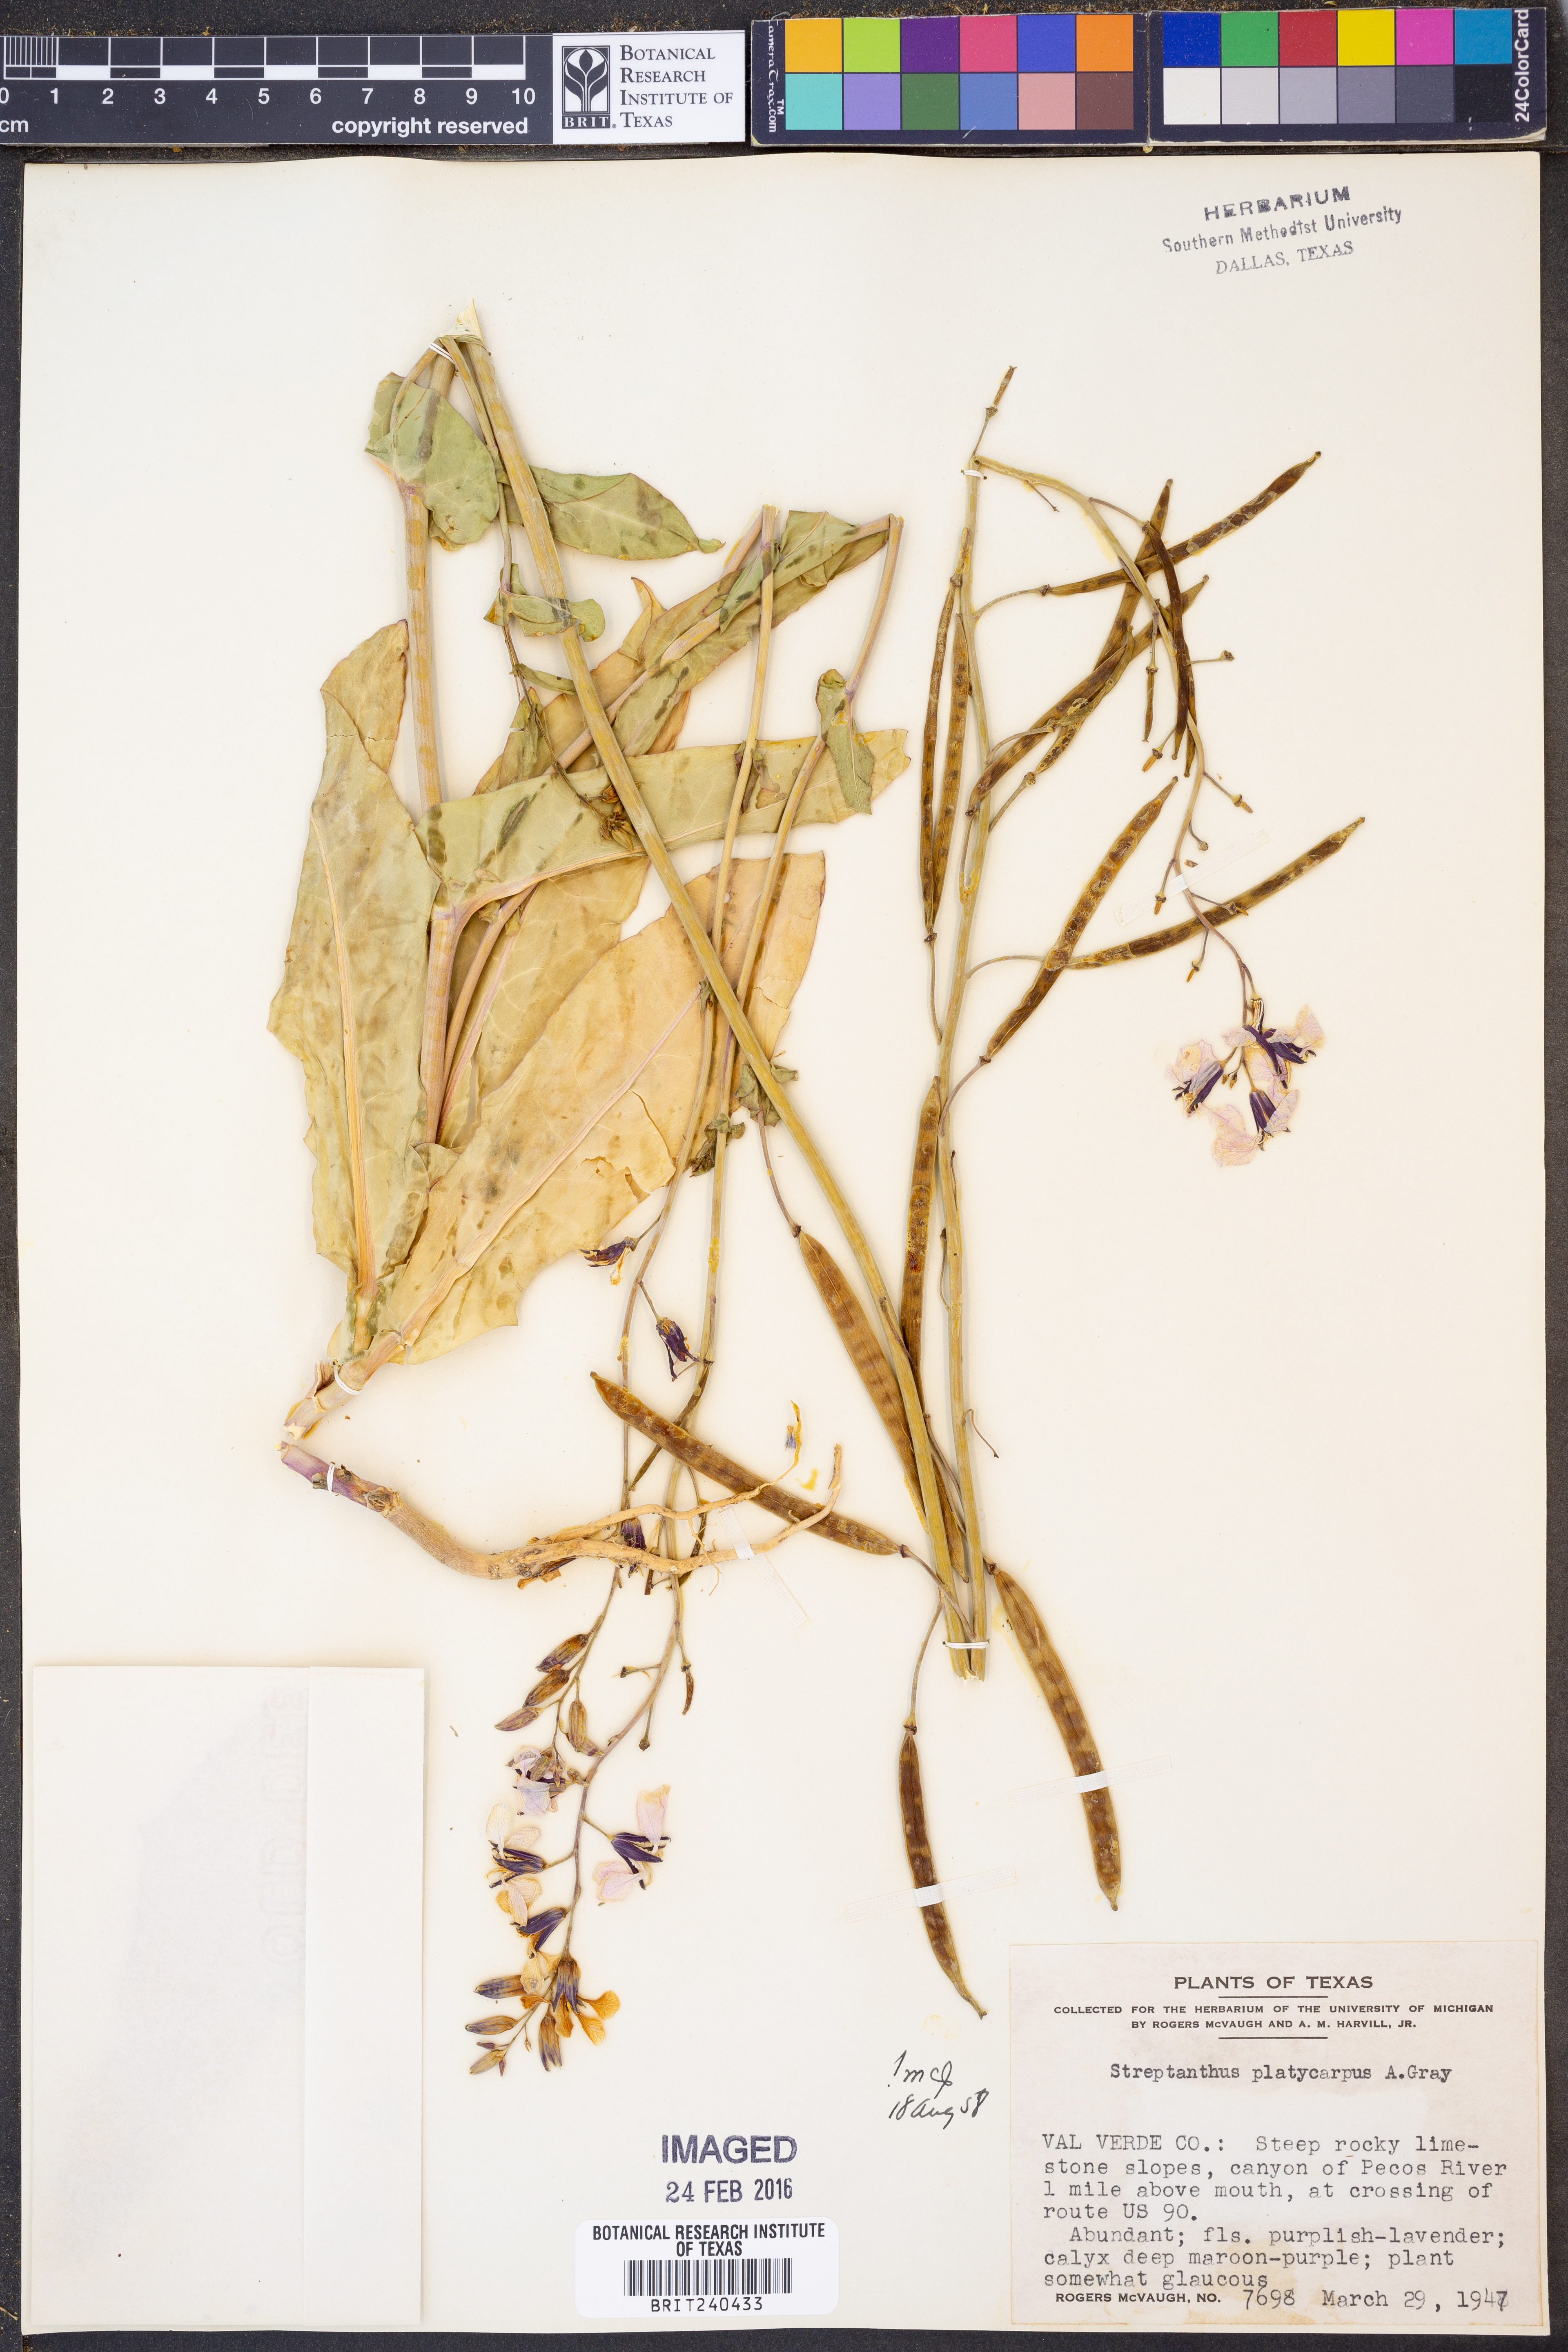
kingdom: Plantae
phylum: Tracheophyta
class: Magnoliopsida
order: Brassicales
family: Brassicaceae
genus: Streptanthus
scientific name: Streptanthus platycarpus
